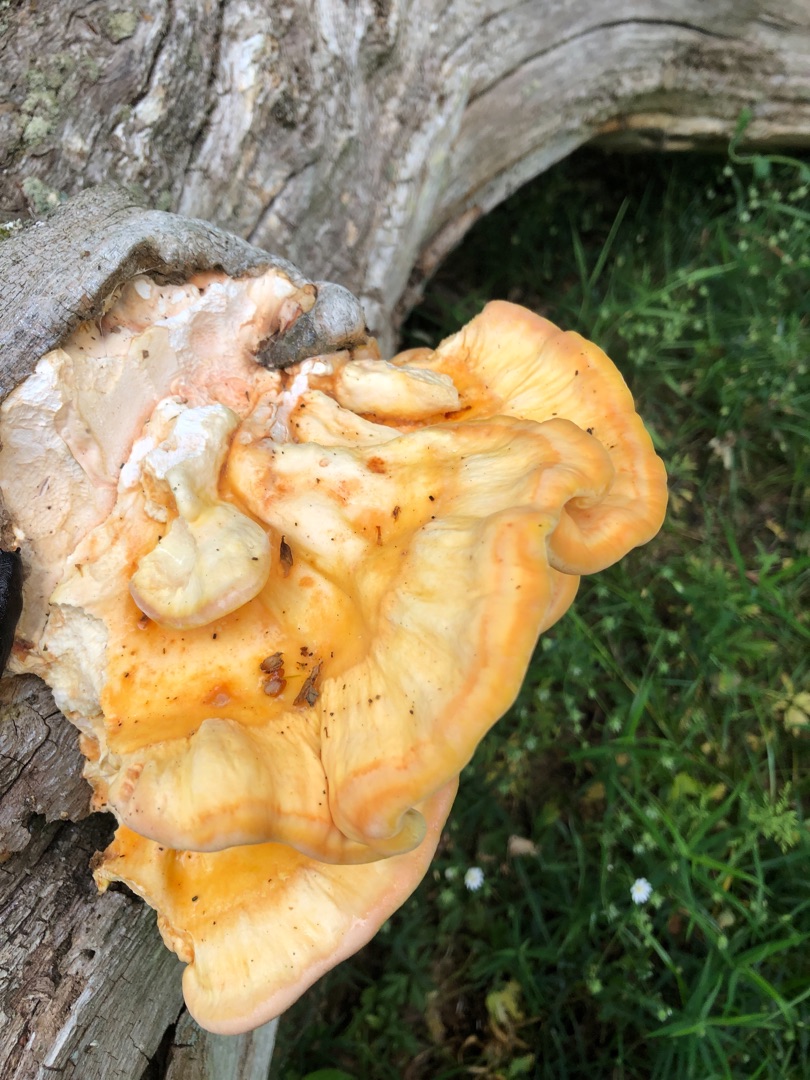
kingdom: Fungi
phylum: Basidiomycota
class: Agaricomycetes
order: Polyporales
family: Laetiporaceae
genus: Laetiporus
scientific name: Laetiporus sulphureus
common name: Svovlporesvamp
